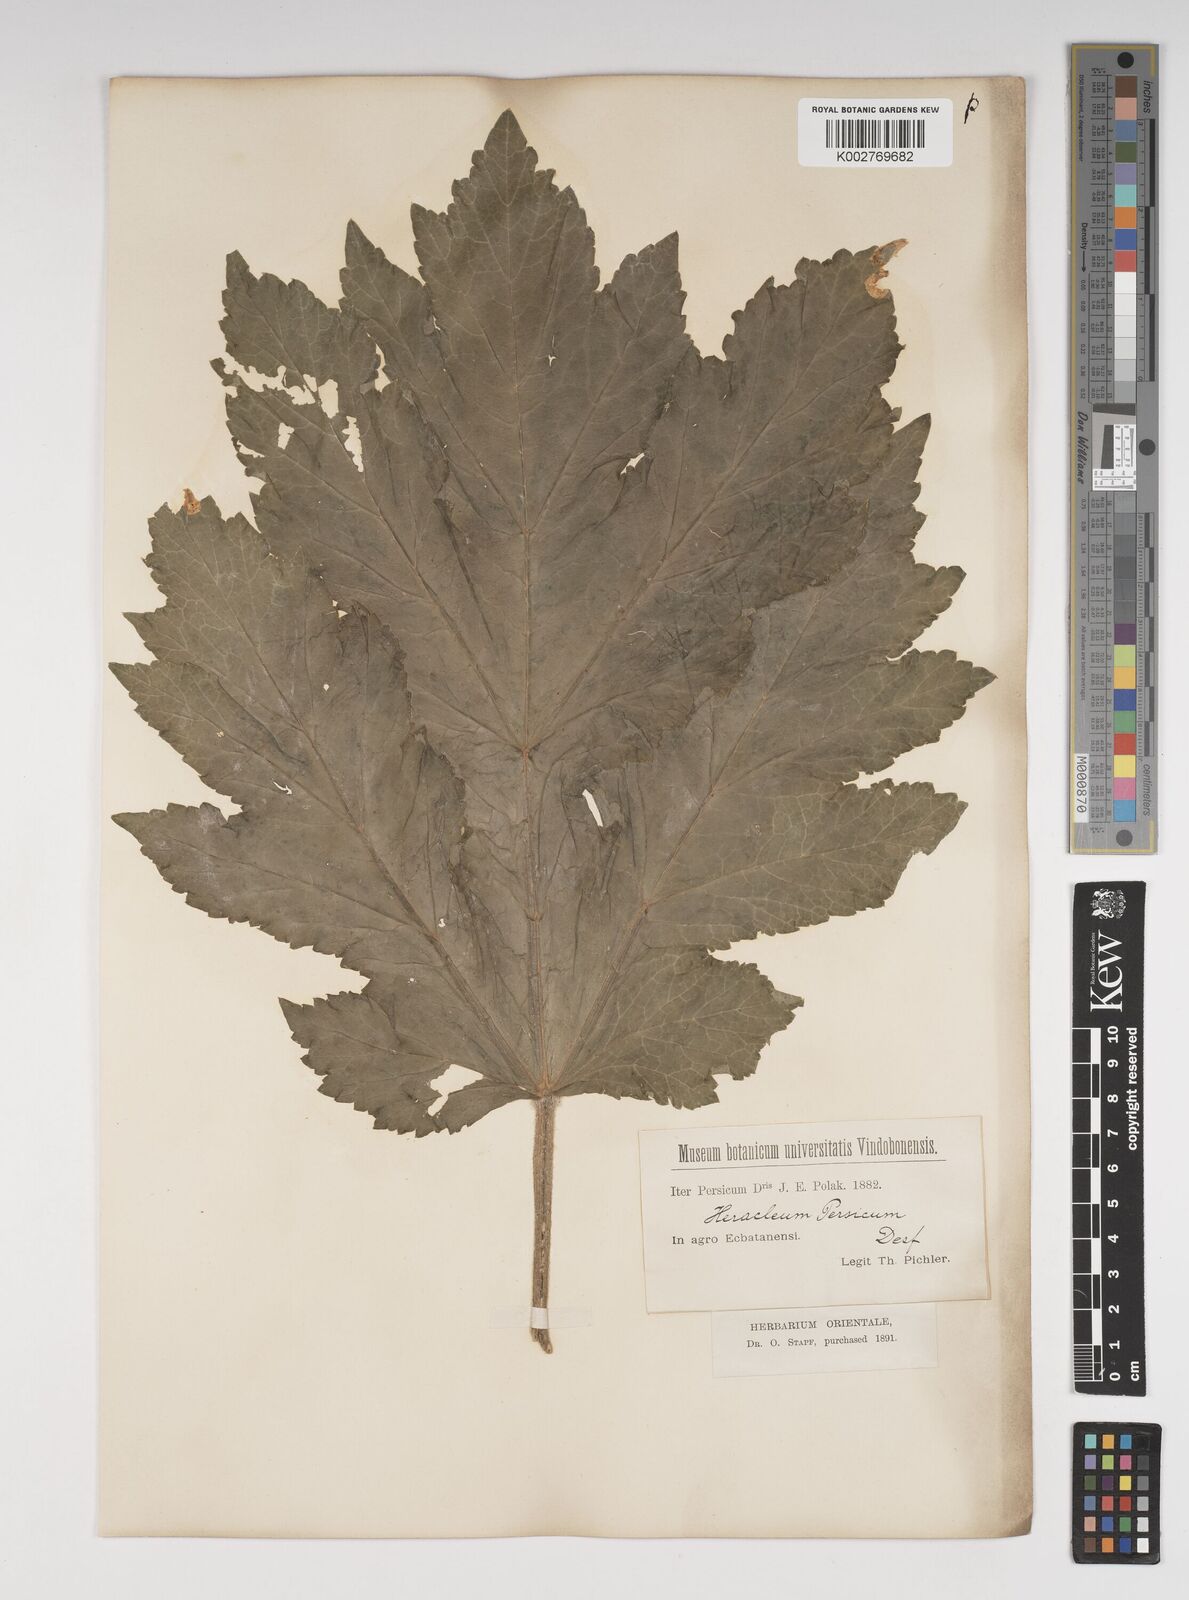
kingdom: Plantae
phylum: Tracheophyta
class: Magnoliopsida
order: Apiales
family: Apiaceae
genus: Heracleum
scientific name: Heracleum persicum
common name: Persian hogweed
